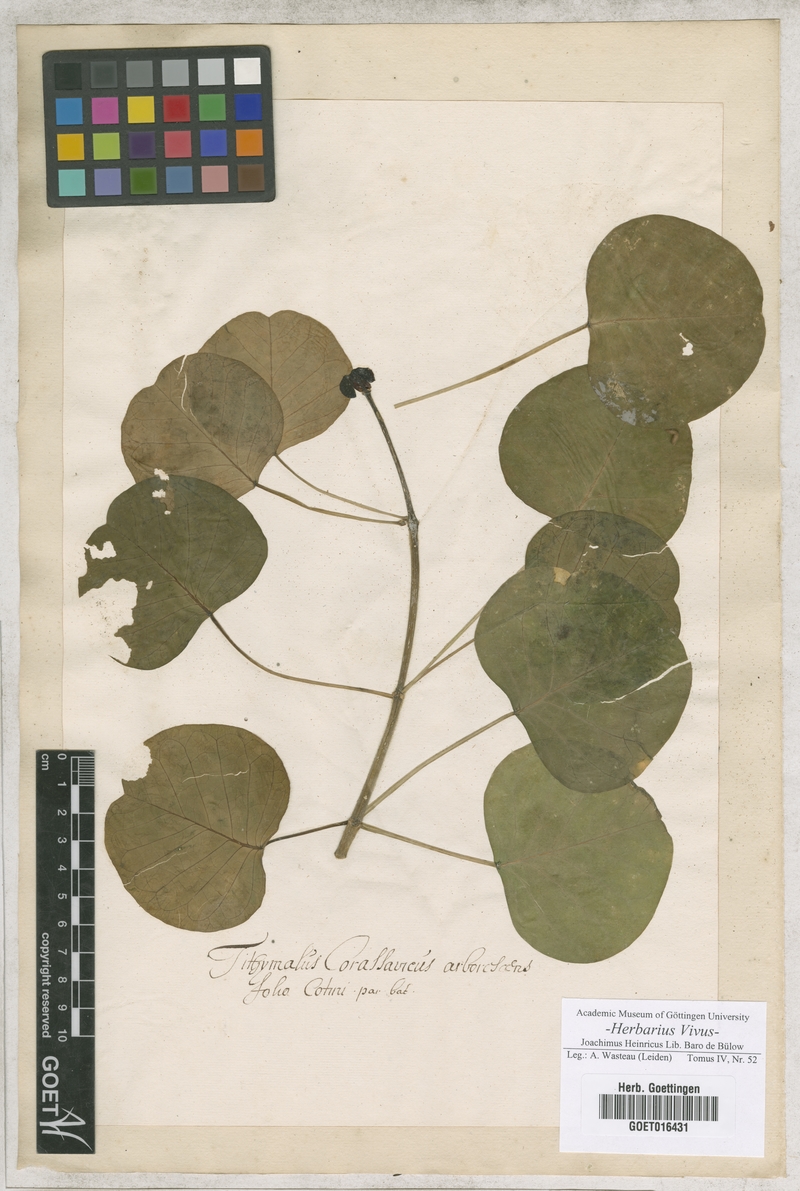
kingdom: Plantae
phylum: Tracheophyta
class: Magnoliopsida
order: Malpighiales
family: Euphorbiaceae
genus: Euphorbia
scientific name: Euphorbia cotinifolia
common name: Tropical smokebush
